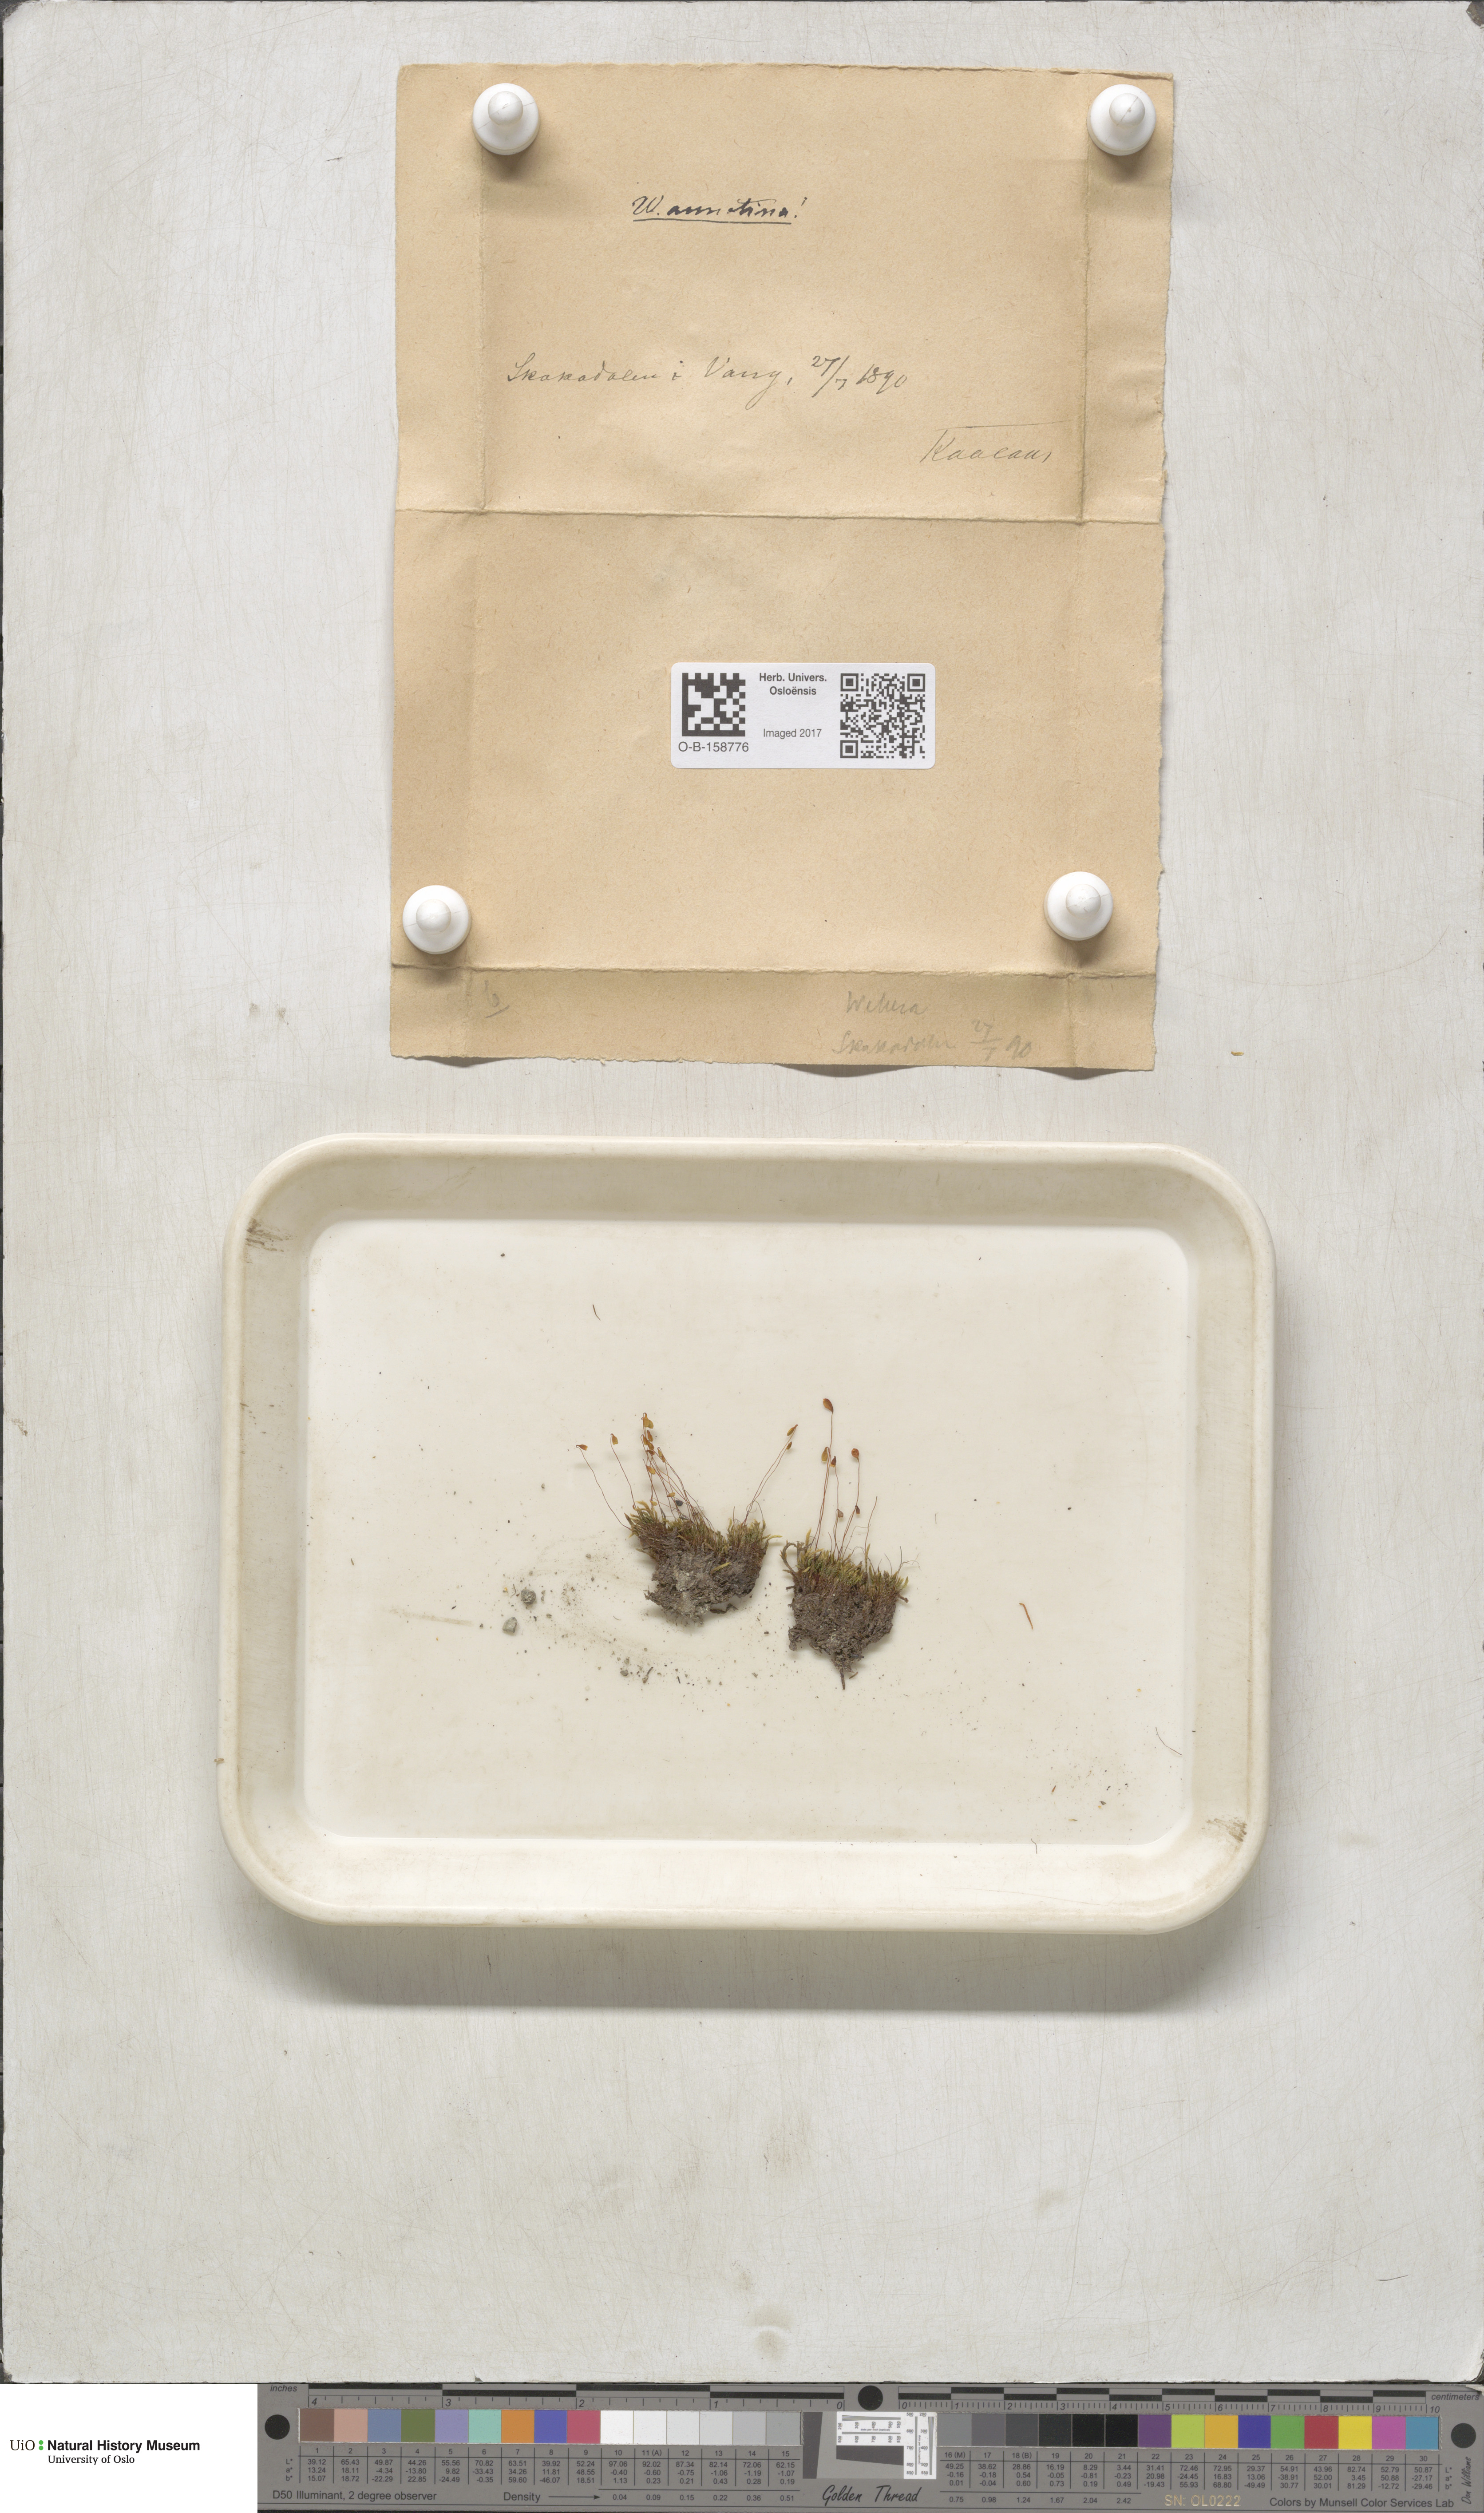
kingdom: Plantae
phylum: Bryophyta
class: Bryopsida
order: Bryales
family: Mniaceae
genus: Pohlia
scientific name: Pohlia annotina
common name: Pale-fruited nodding moss
